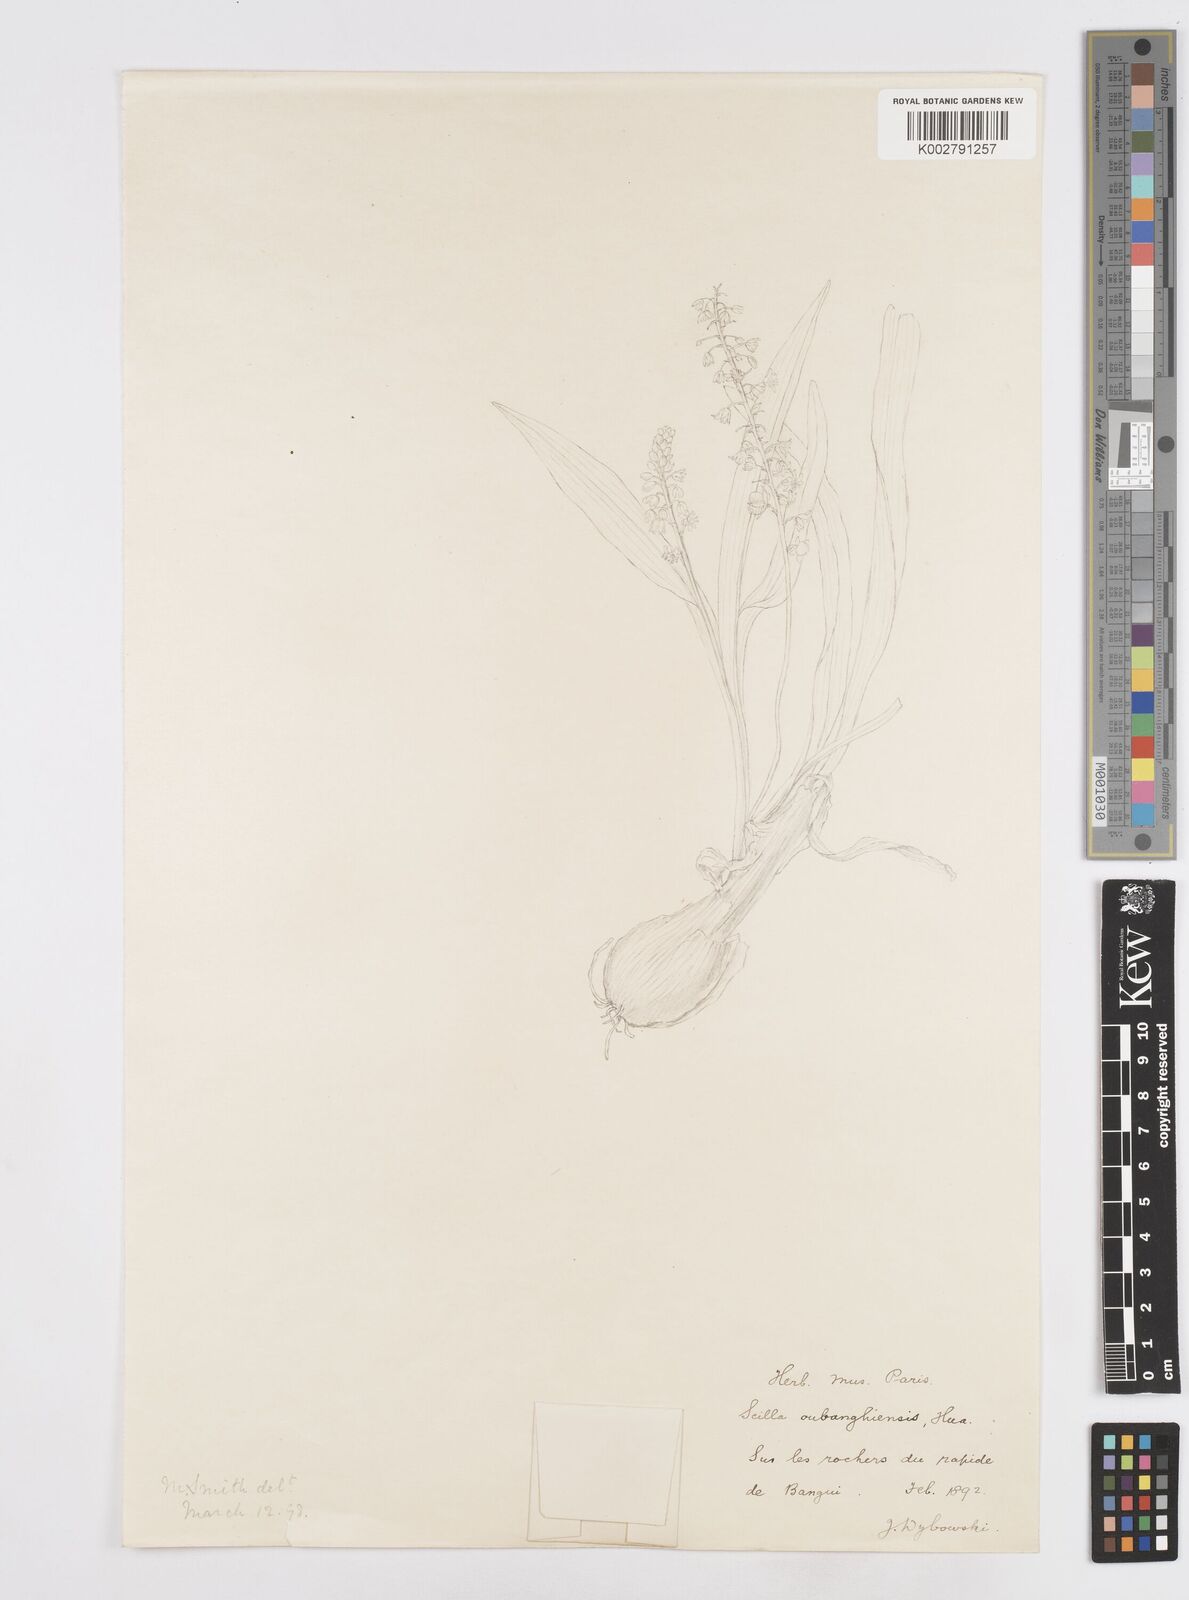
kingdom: Plantae
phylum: Tracheophyta
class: Liliopsida
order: Asparagales
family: Asparagaceae
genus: Scilla
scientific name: Scilla oubangluensis
